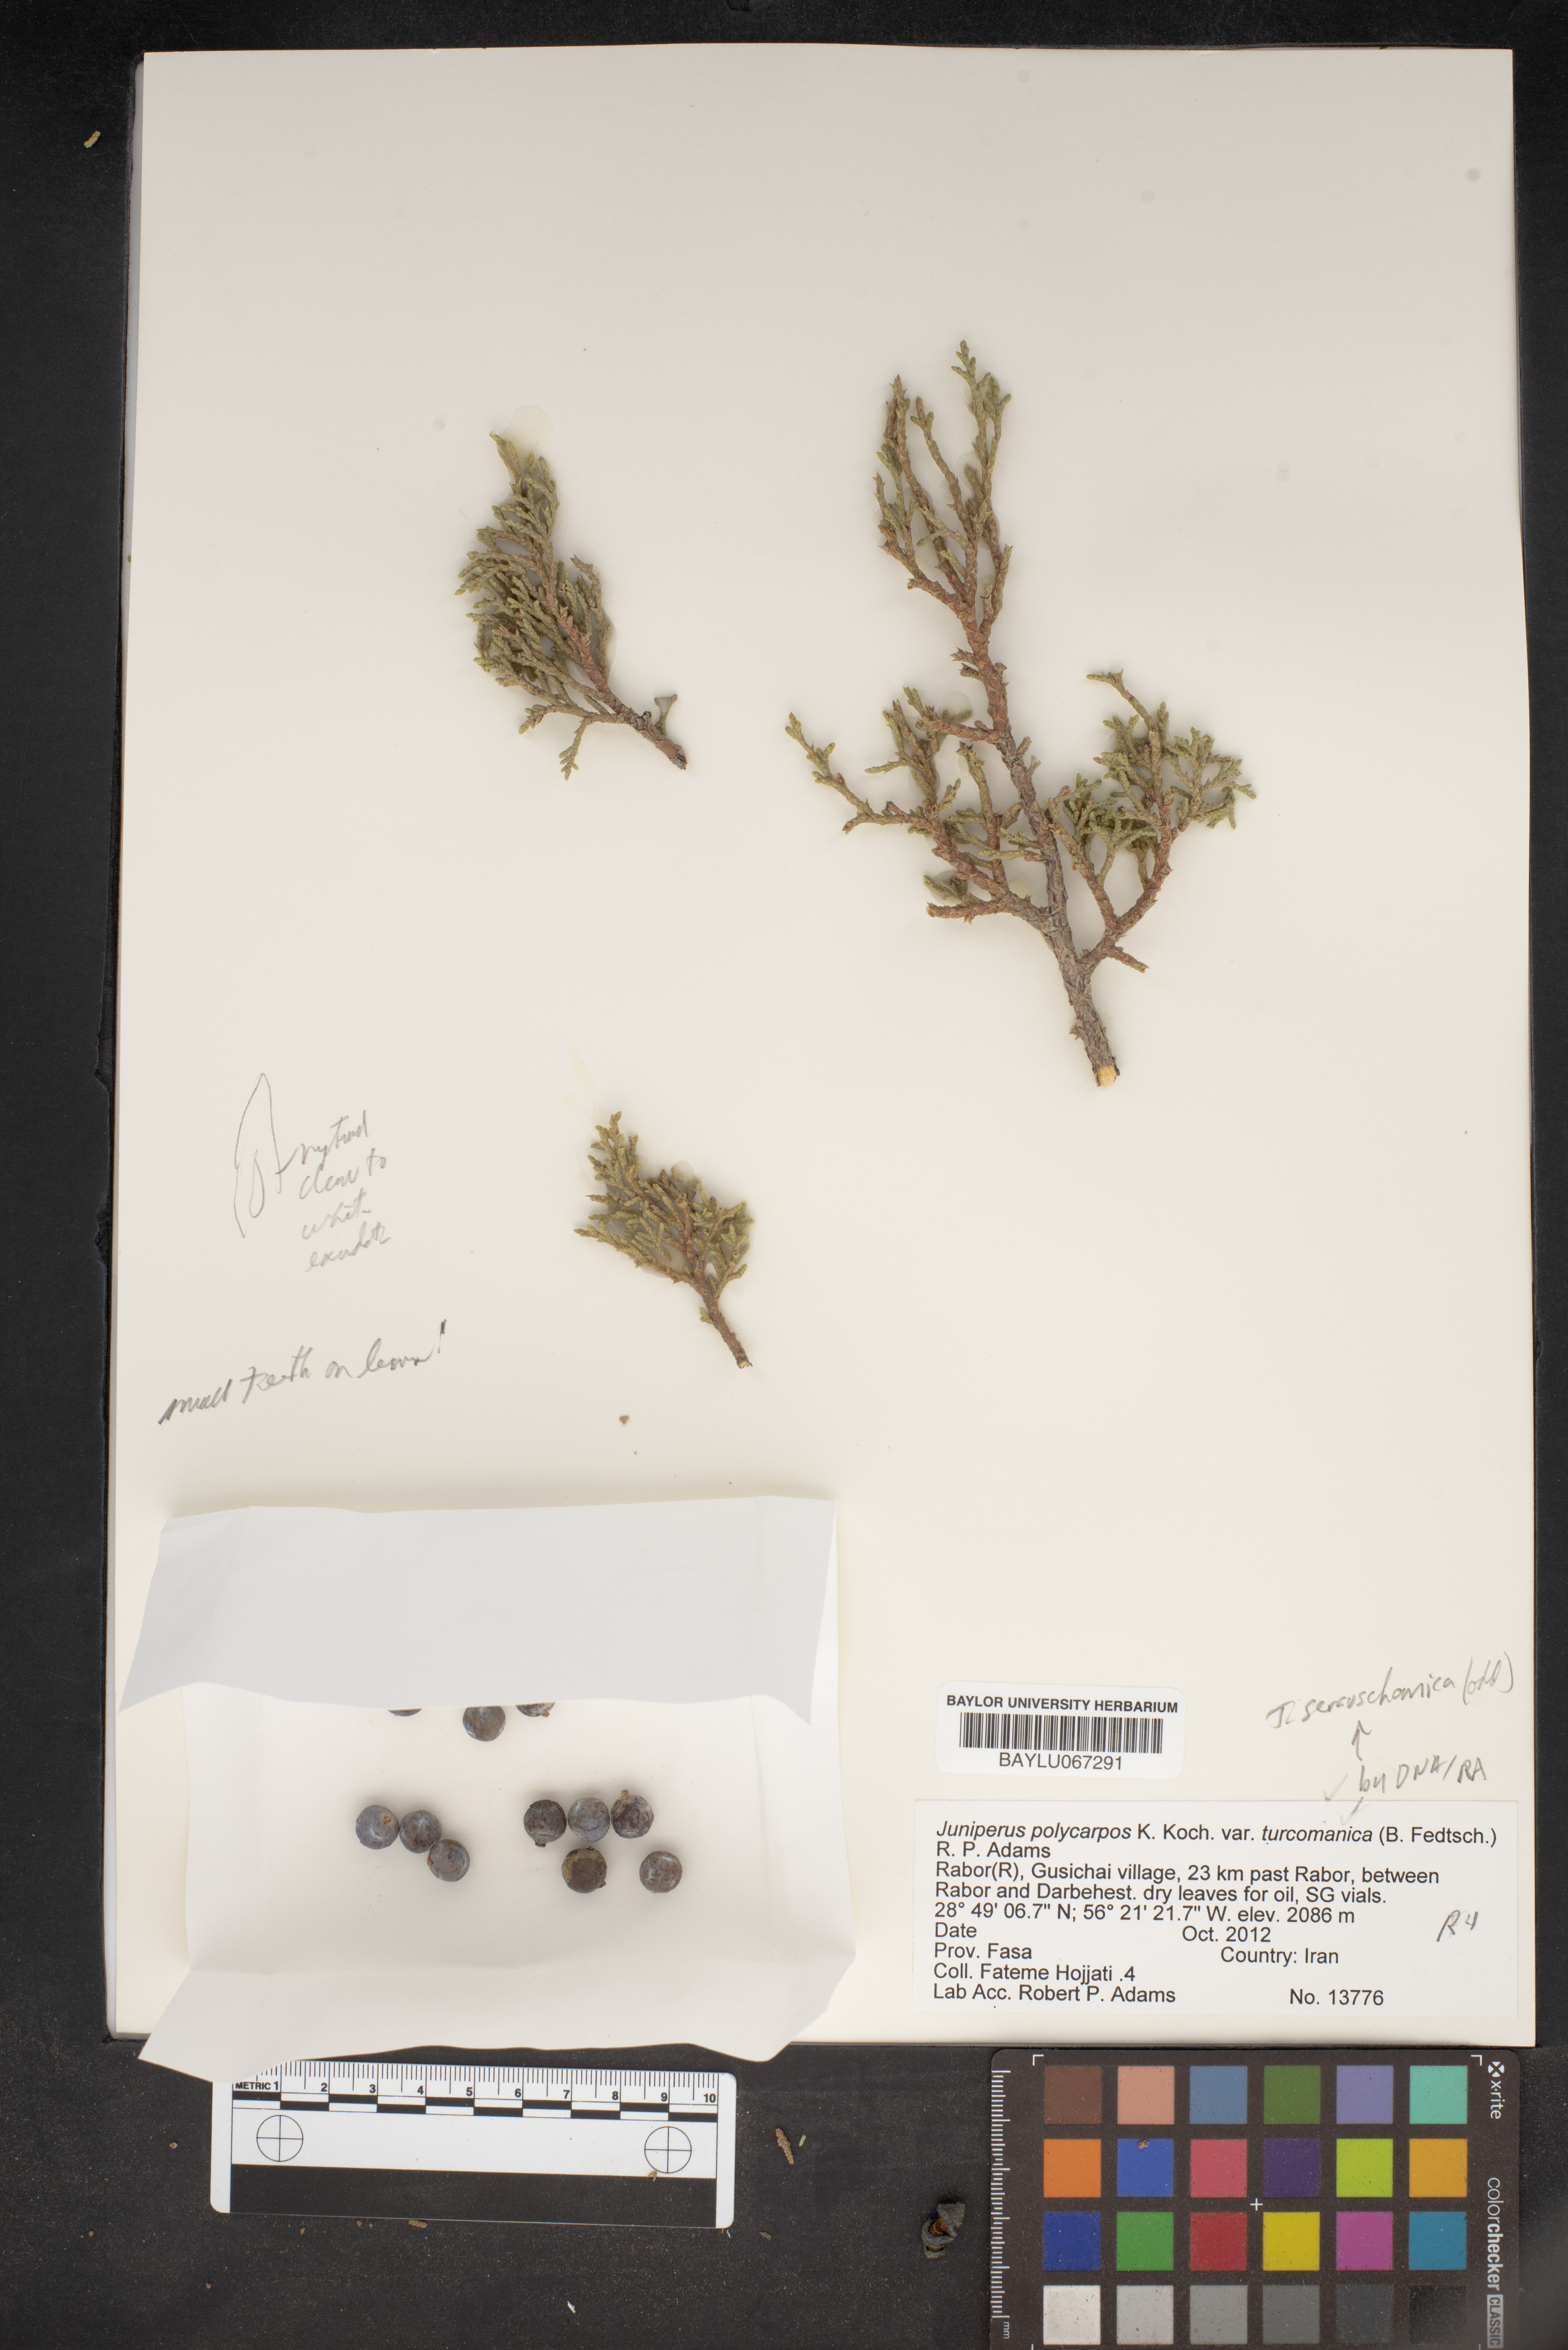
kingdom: Plantae
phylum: Tracheophyta
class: Pinopsida
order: Pinales
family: Cupressaceae
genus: Juniperus
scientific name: Juniperus excelsa
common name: Crimean juniper
